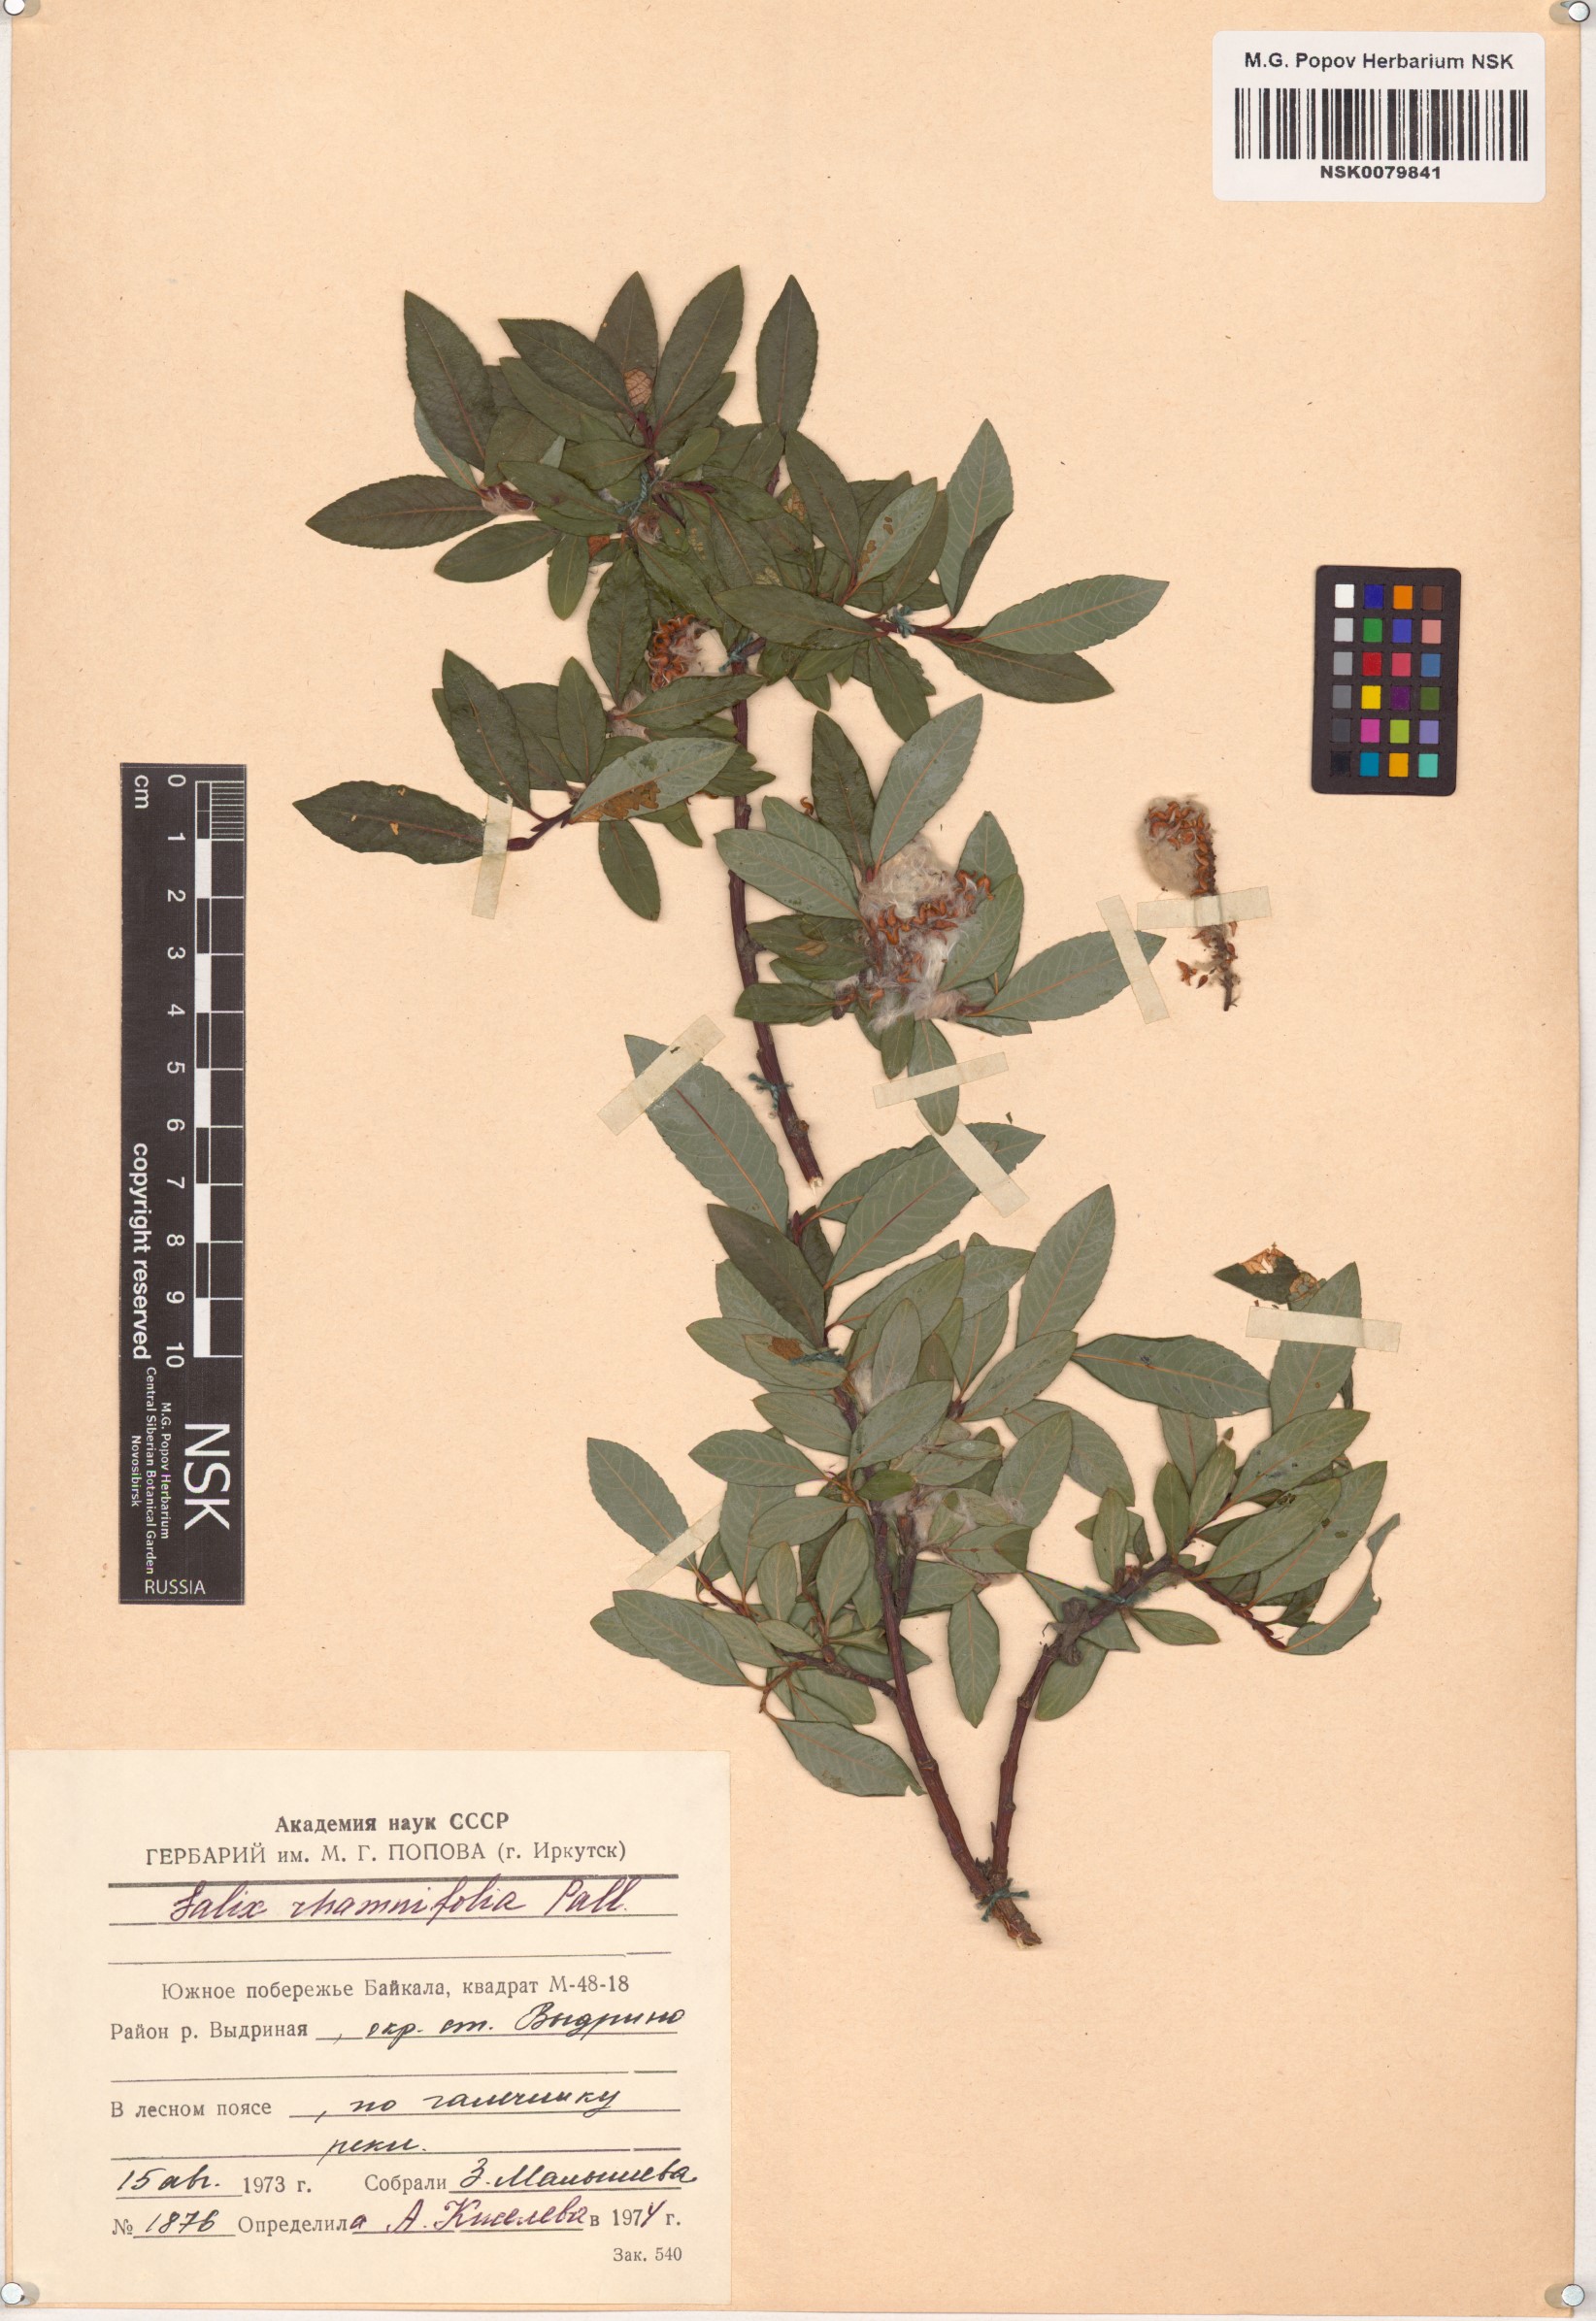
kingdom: Plantae
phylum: Tracheophyta
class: Magnoliopsida
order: Malpighiales
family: Salicaceae
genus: Salix
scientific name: Salix rhamnifolia
